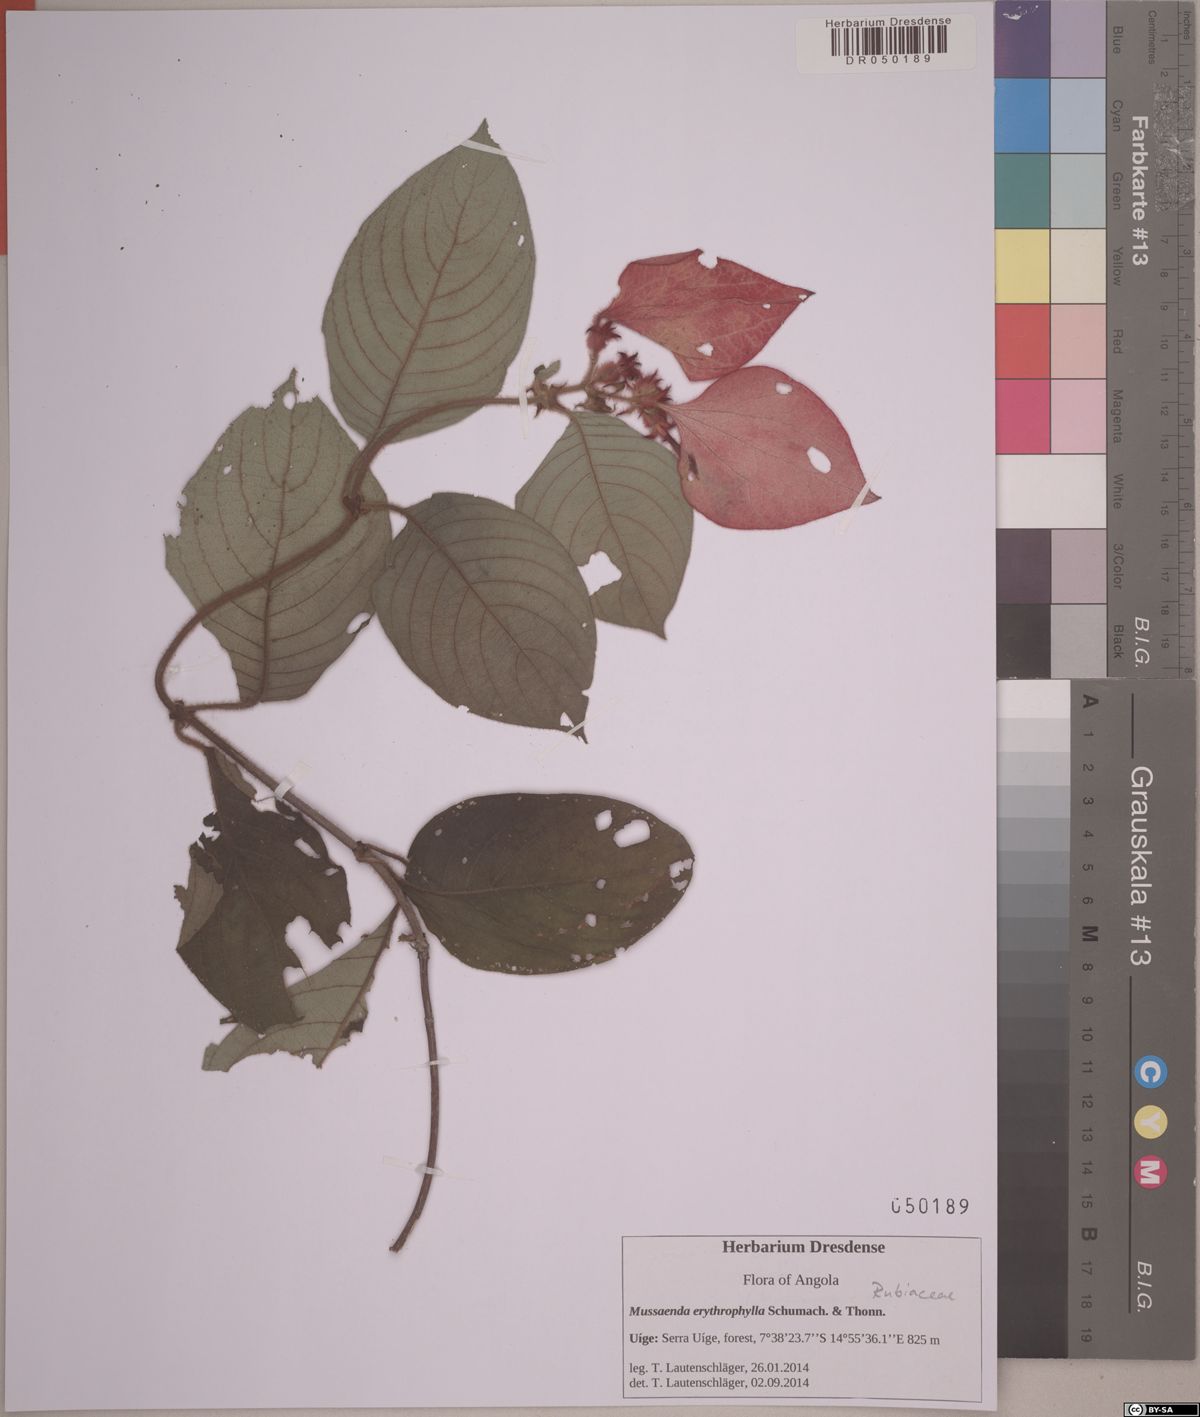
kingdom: Plantae
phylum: Tracheophyta
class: Magnoliopsida
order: Gentianales
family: Rubiaceae
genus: Mussaenda
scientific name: Mussaenda erythrophylla
